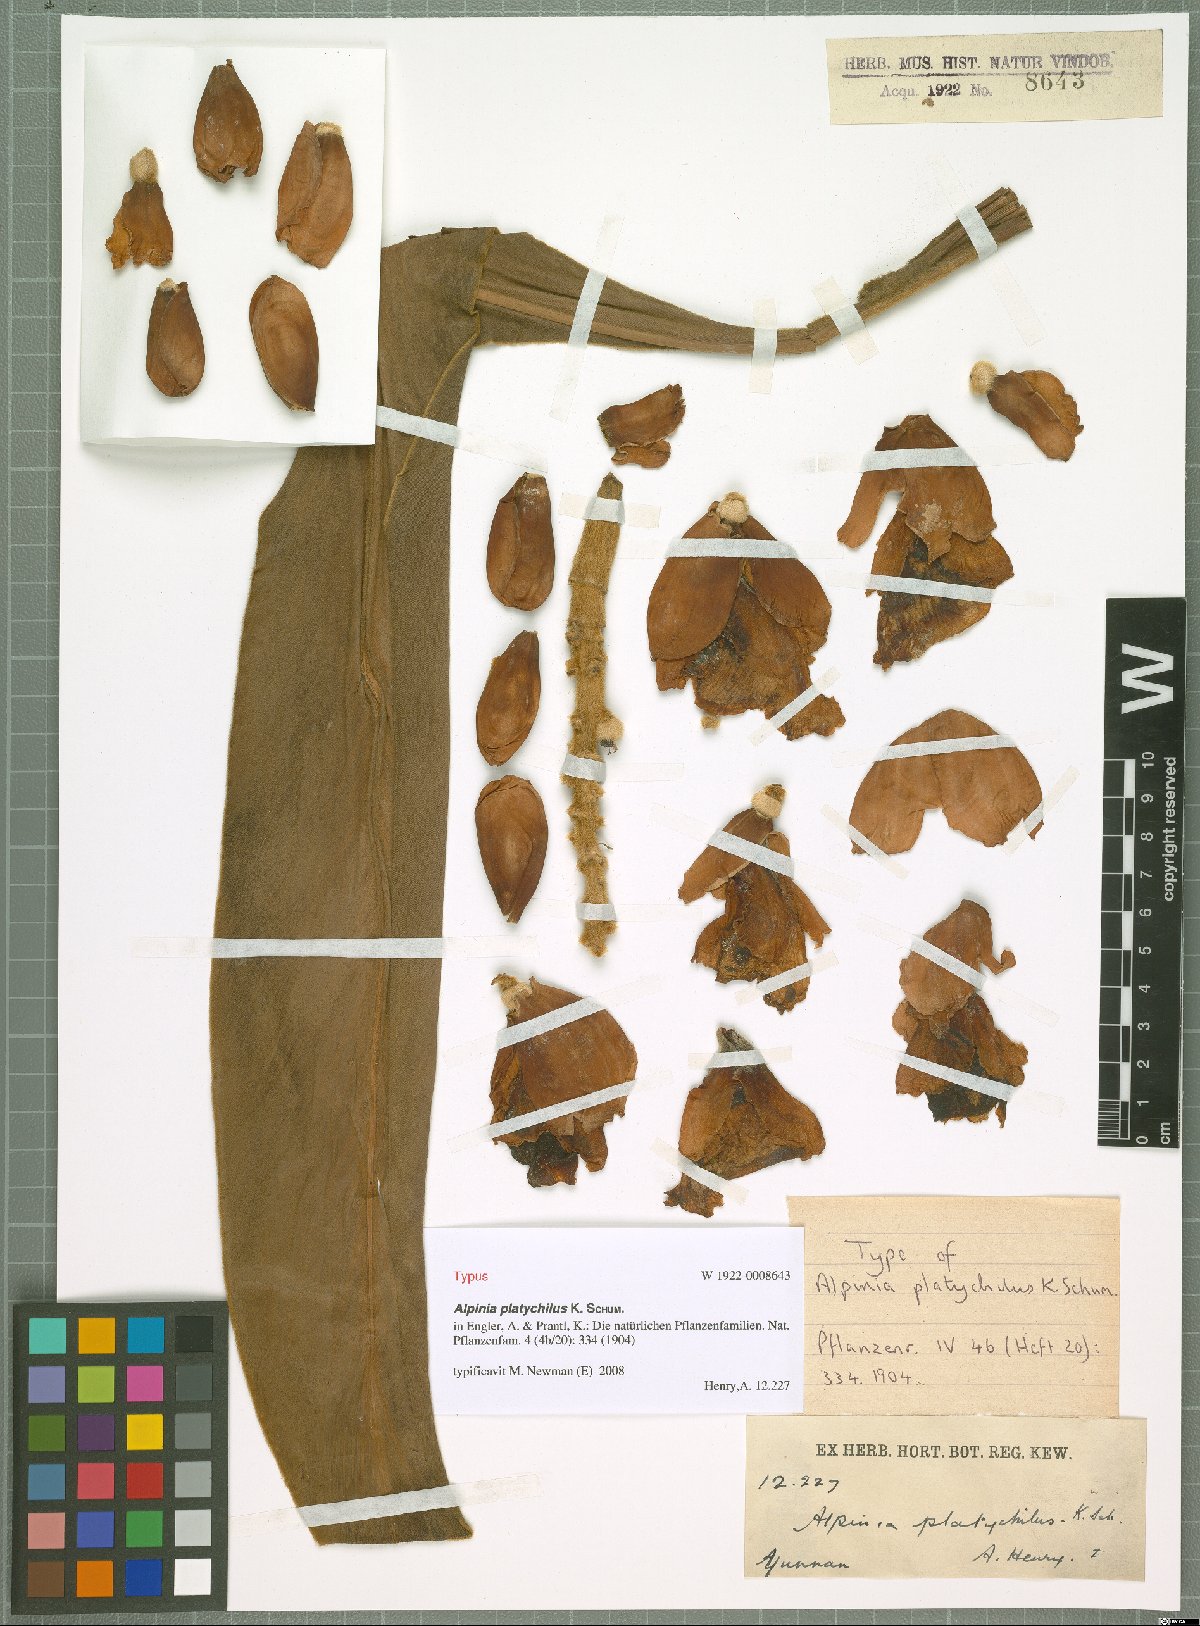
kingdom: Plantae
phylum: Tracheophyta
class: Liliopsida
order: Zingiberales
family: Zingiberaceae
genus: Alpinia
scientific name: Alpinia platychilus
